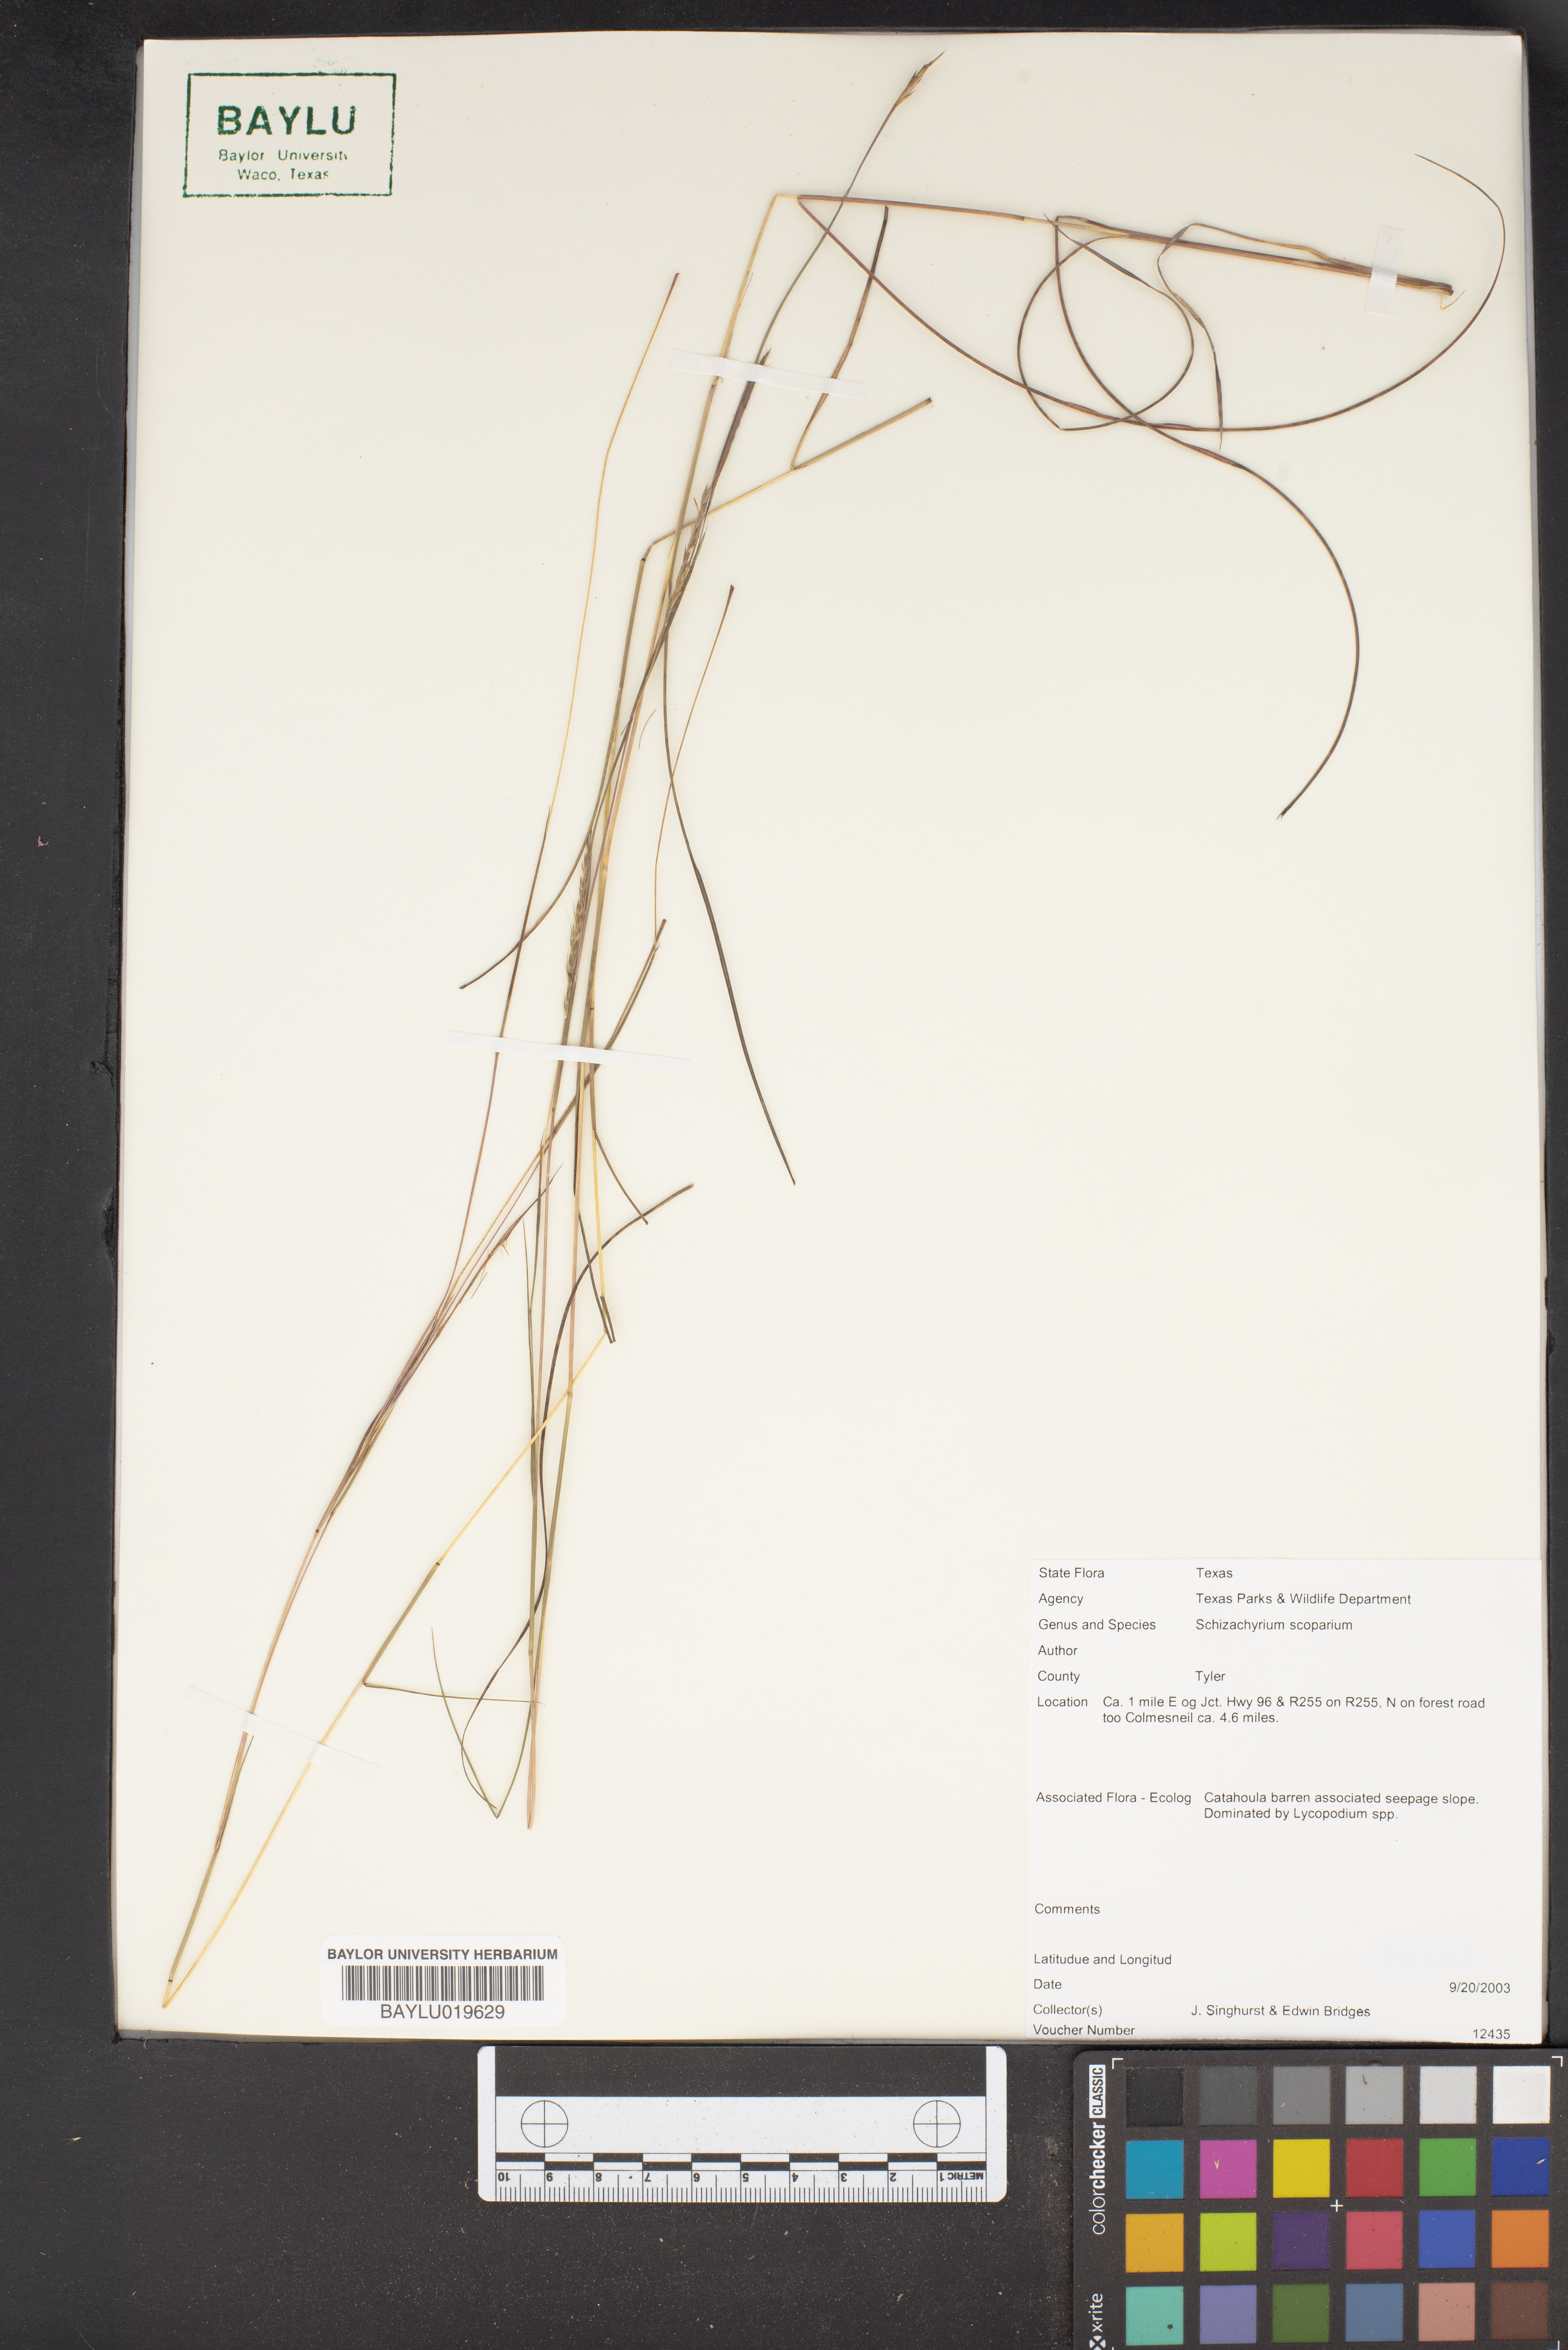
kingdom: Plantae
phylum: Tracheophyta
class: Liliopsida
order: Poales
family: Poaceae
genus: Schizachyrium
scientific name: Schizachyrium scoparium
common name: Little bluestem
